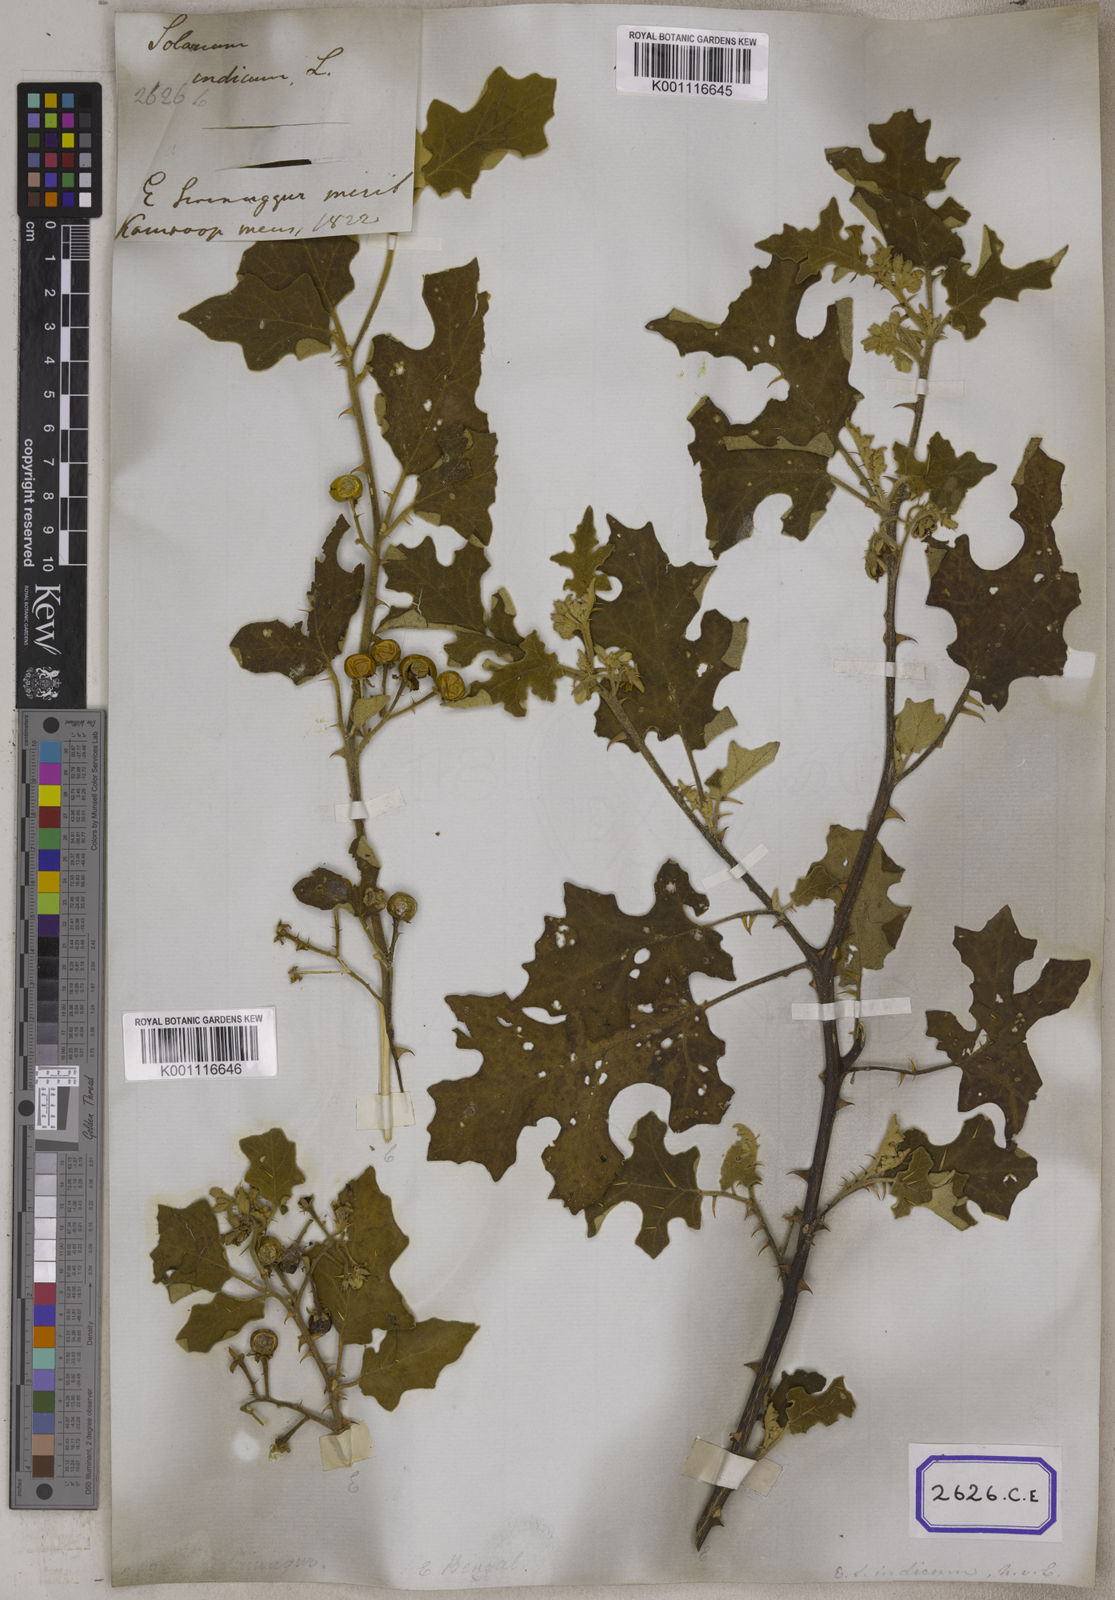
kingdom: Plantae
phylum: Tracheophyta
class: Magnoliopsida
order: Solanales
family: Solanaceae
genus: Solanum
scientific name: Solanum violaceum
